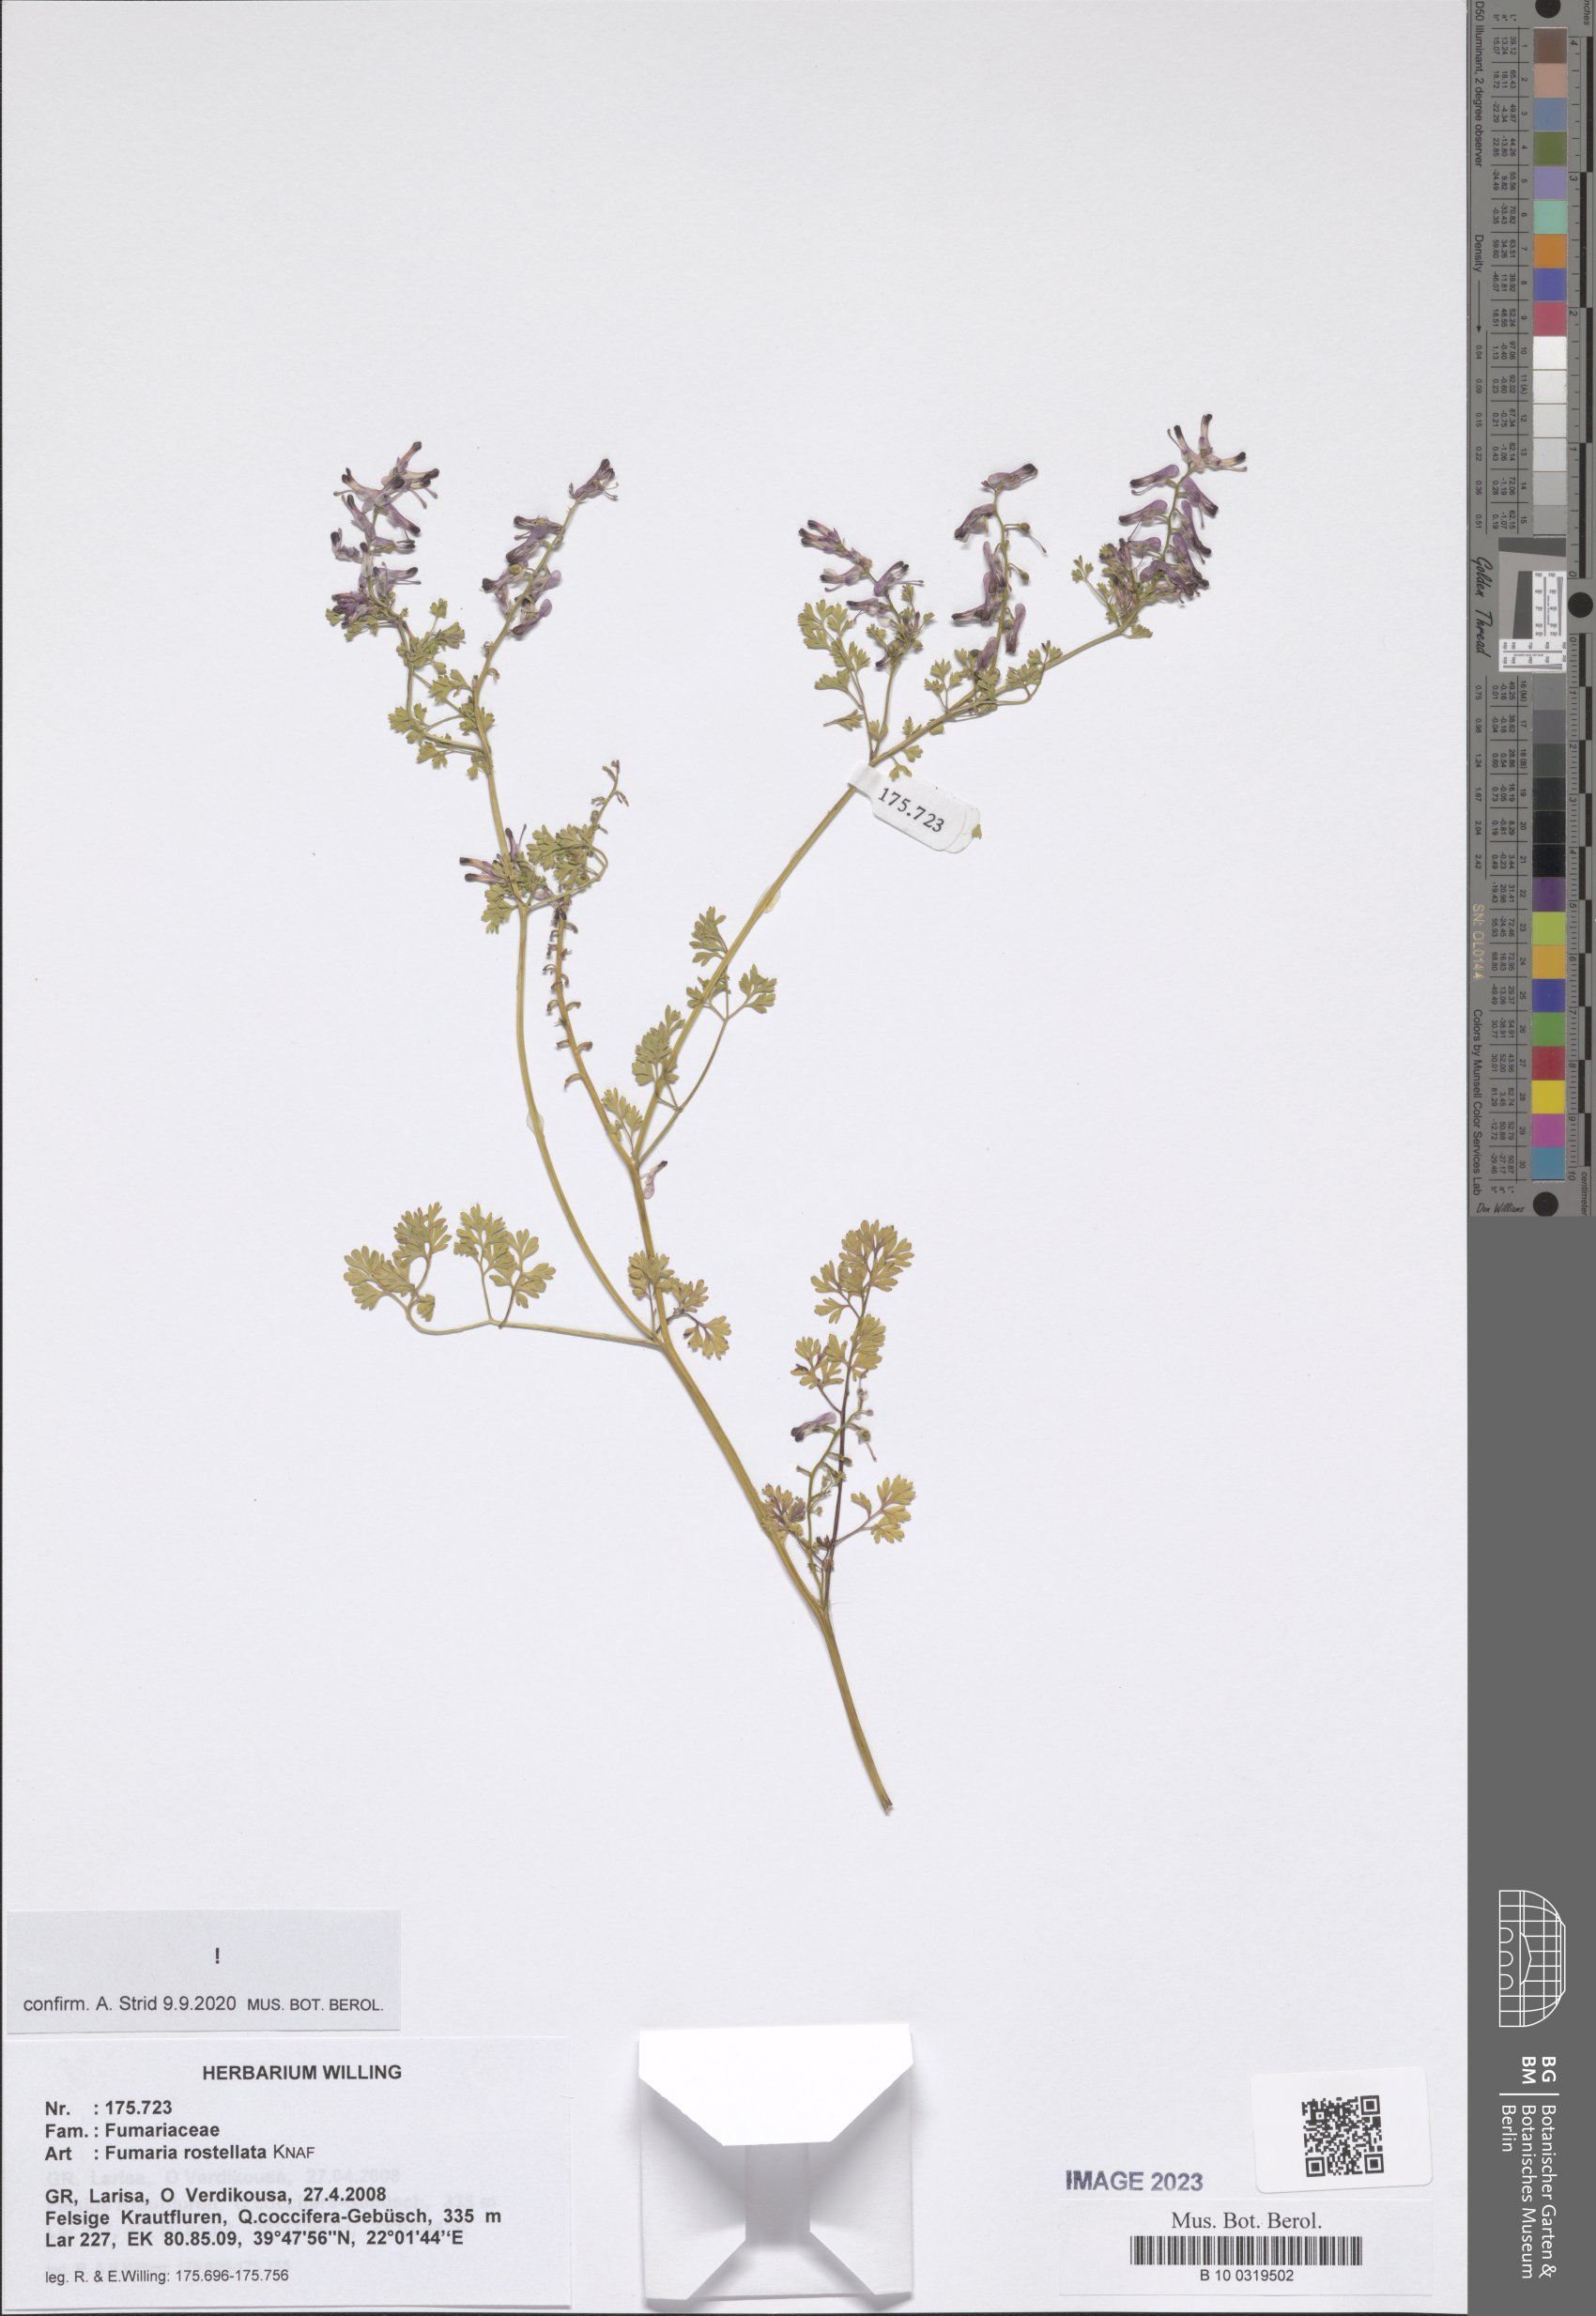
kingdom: Plantae
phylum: Tracheophyta
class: Magnoliopsida
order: Ranunculales
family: Papaveraceae
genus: Fumaria
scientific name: Fumaria rostellata
